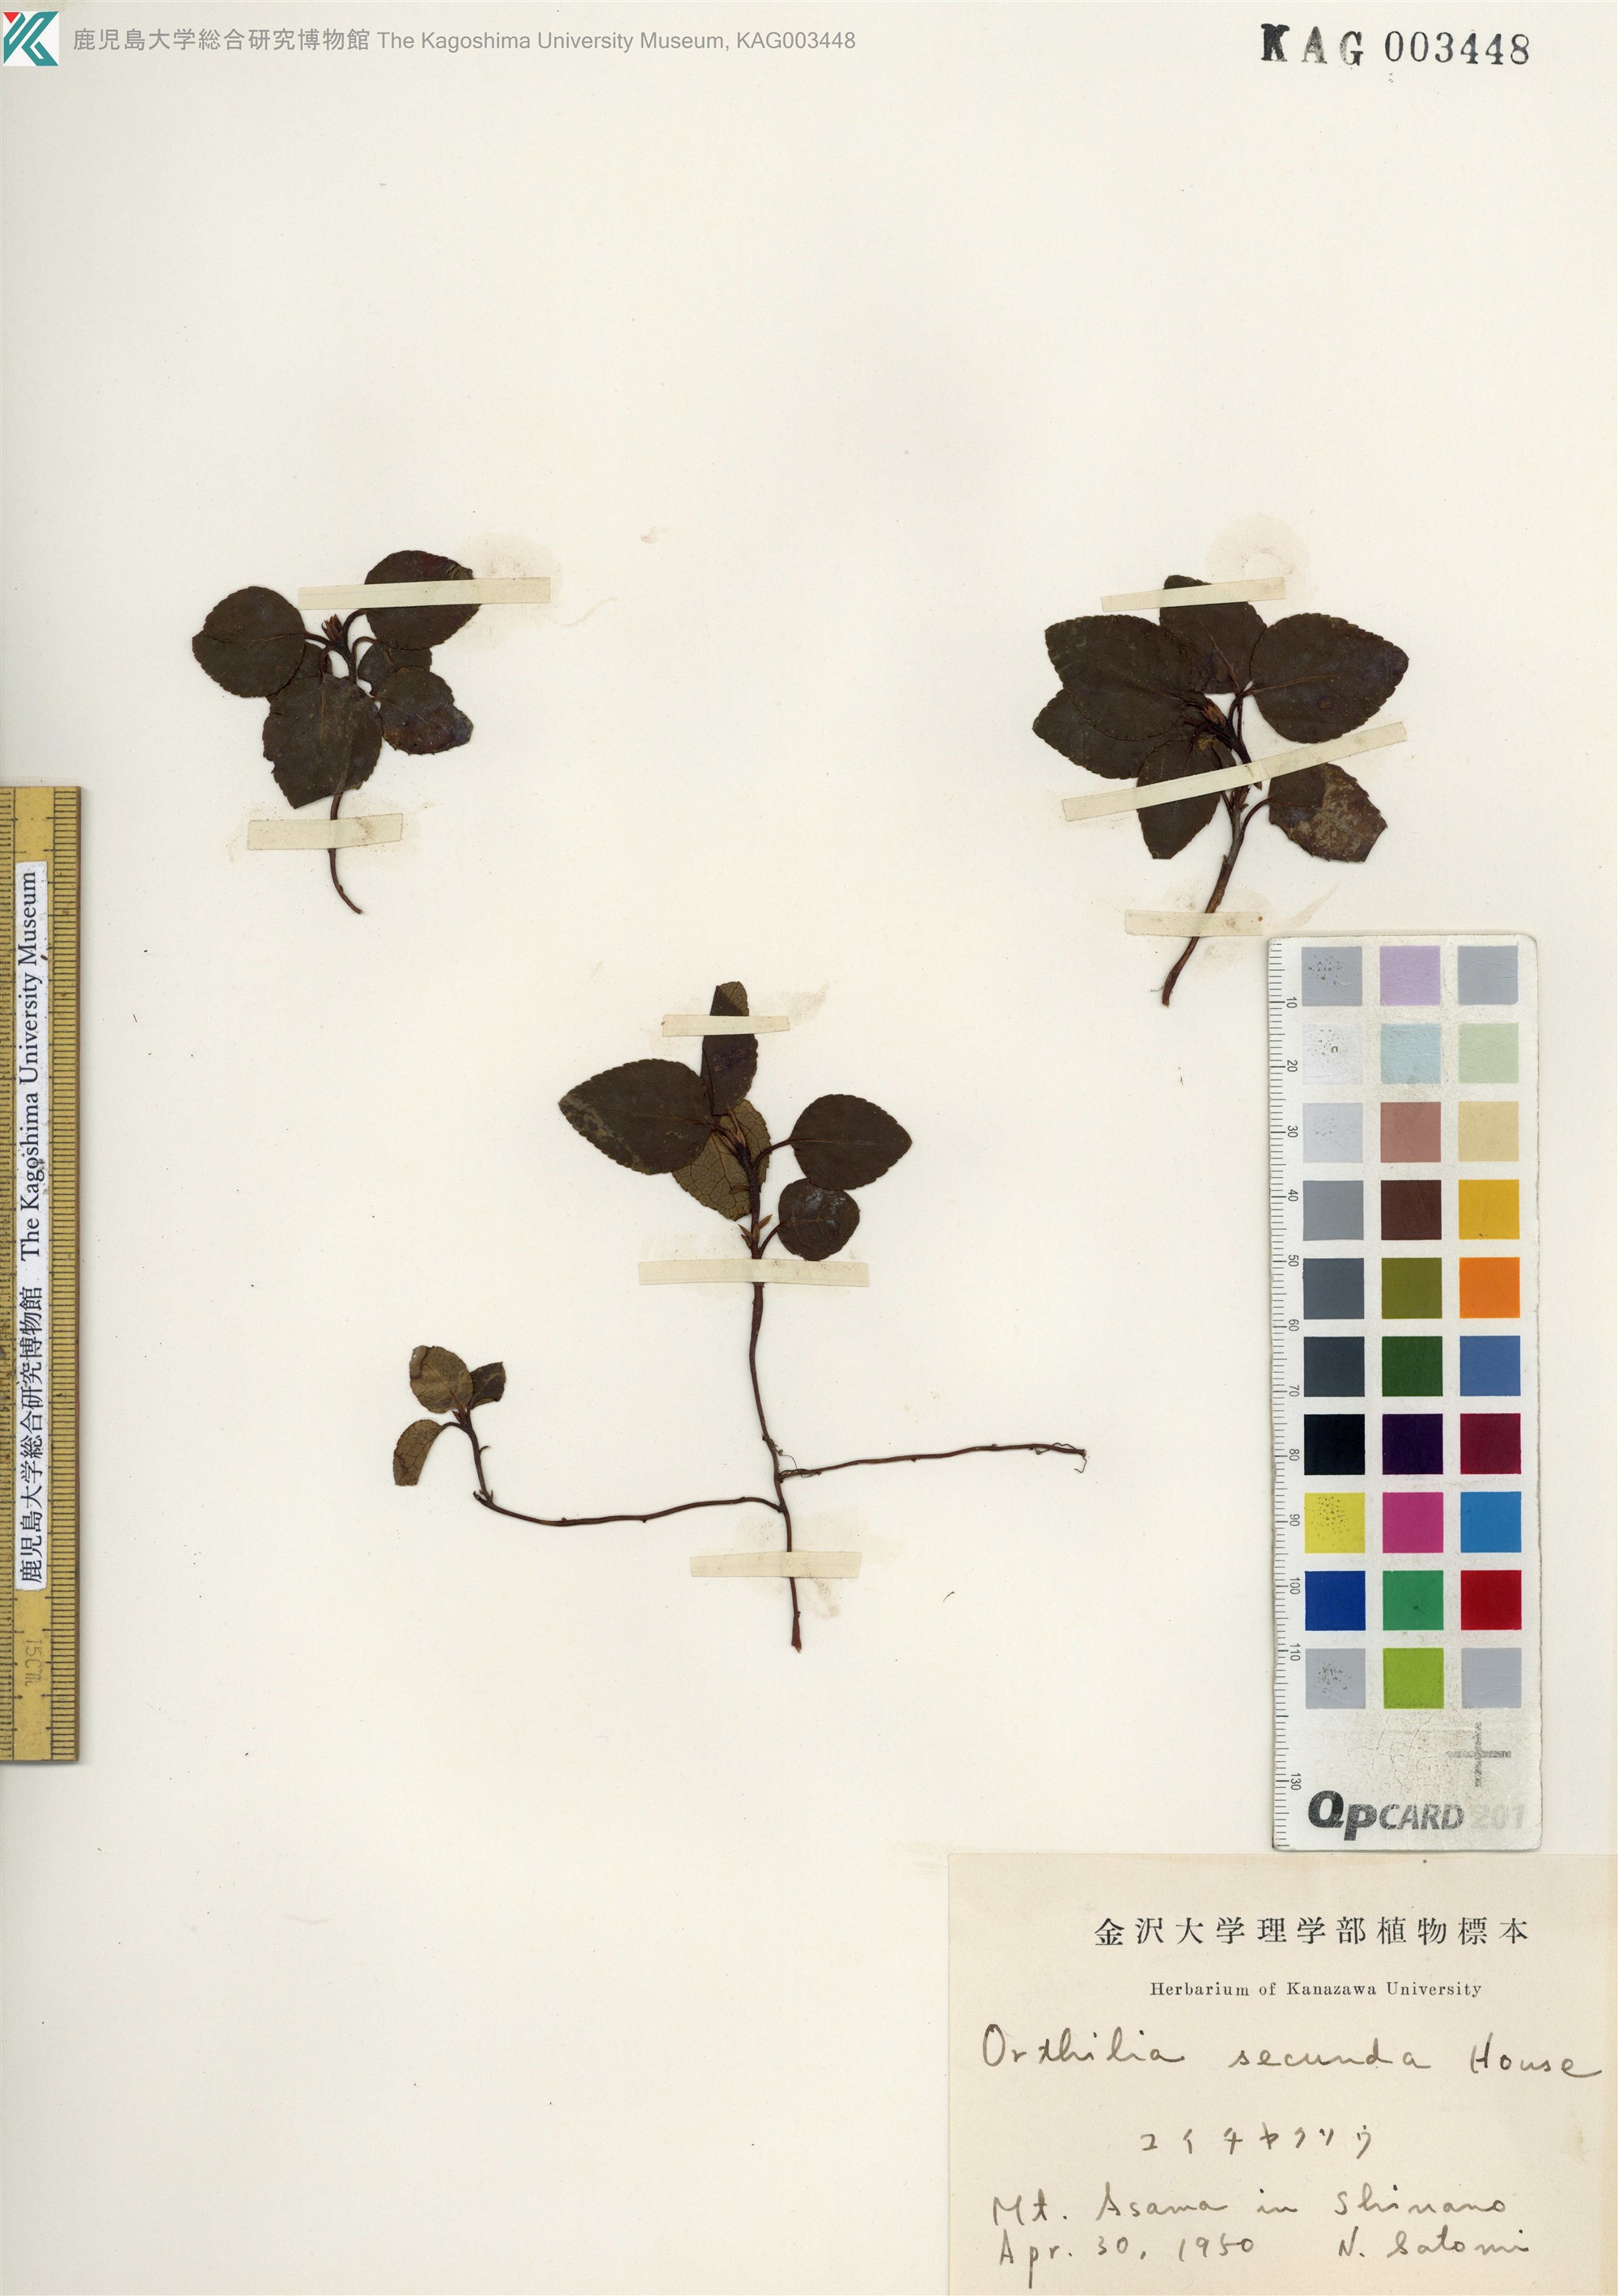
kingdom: Plantae
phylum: Tracheophyta
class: Magnoliopsida
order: Ericales
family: Ericaceae
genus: Orthilia
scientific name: Orthilia secunda
